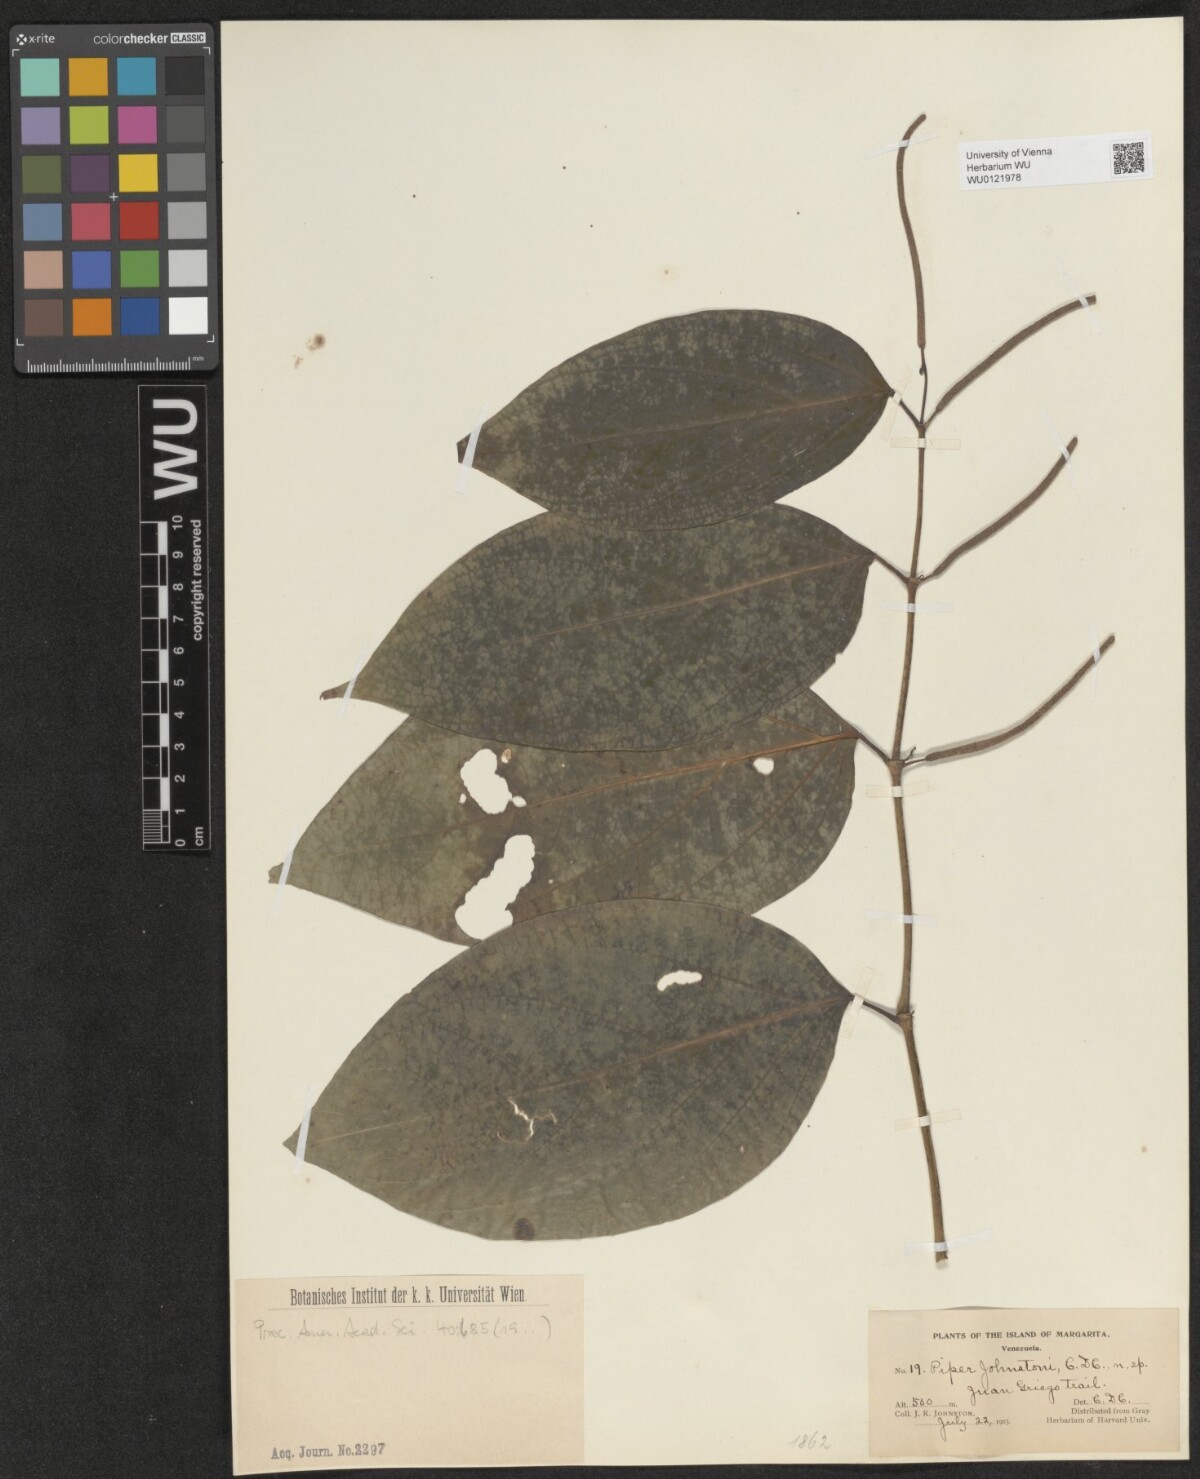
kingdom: Plantae
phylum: Tracheophyta
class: Magnoliopsida
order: Piperales
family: Piperaceae
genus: Piper
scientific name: Piper aequale
